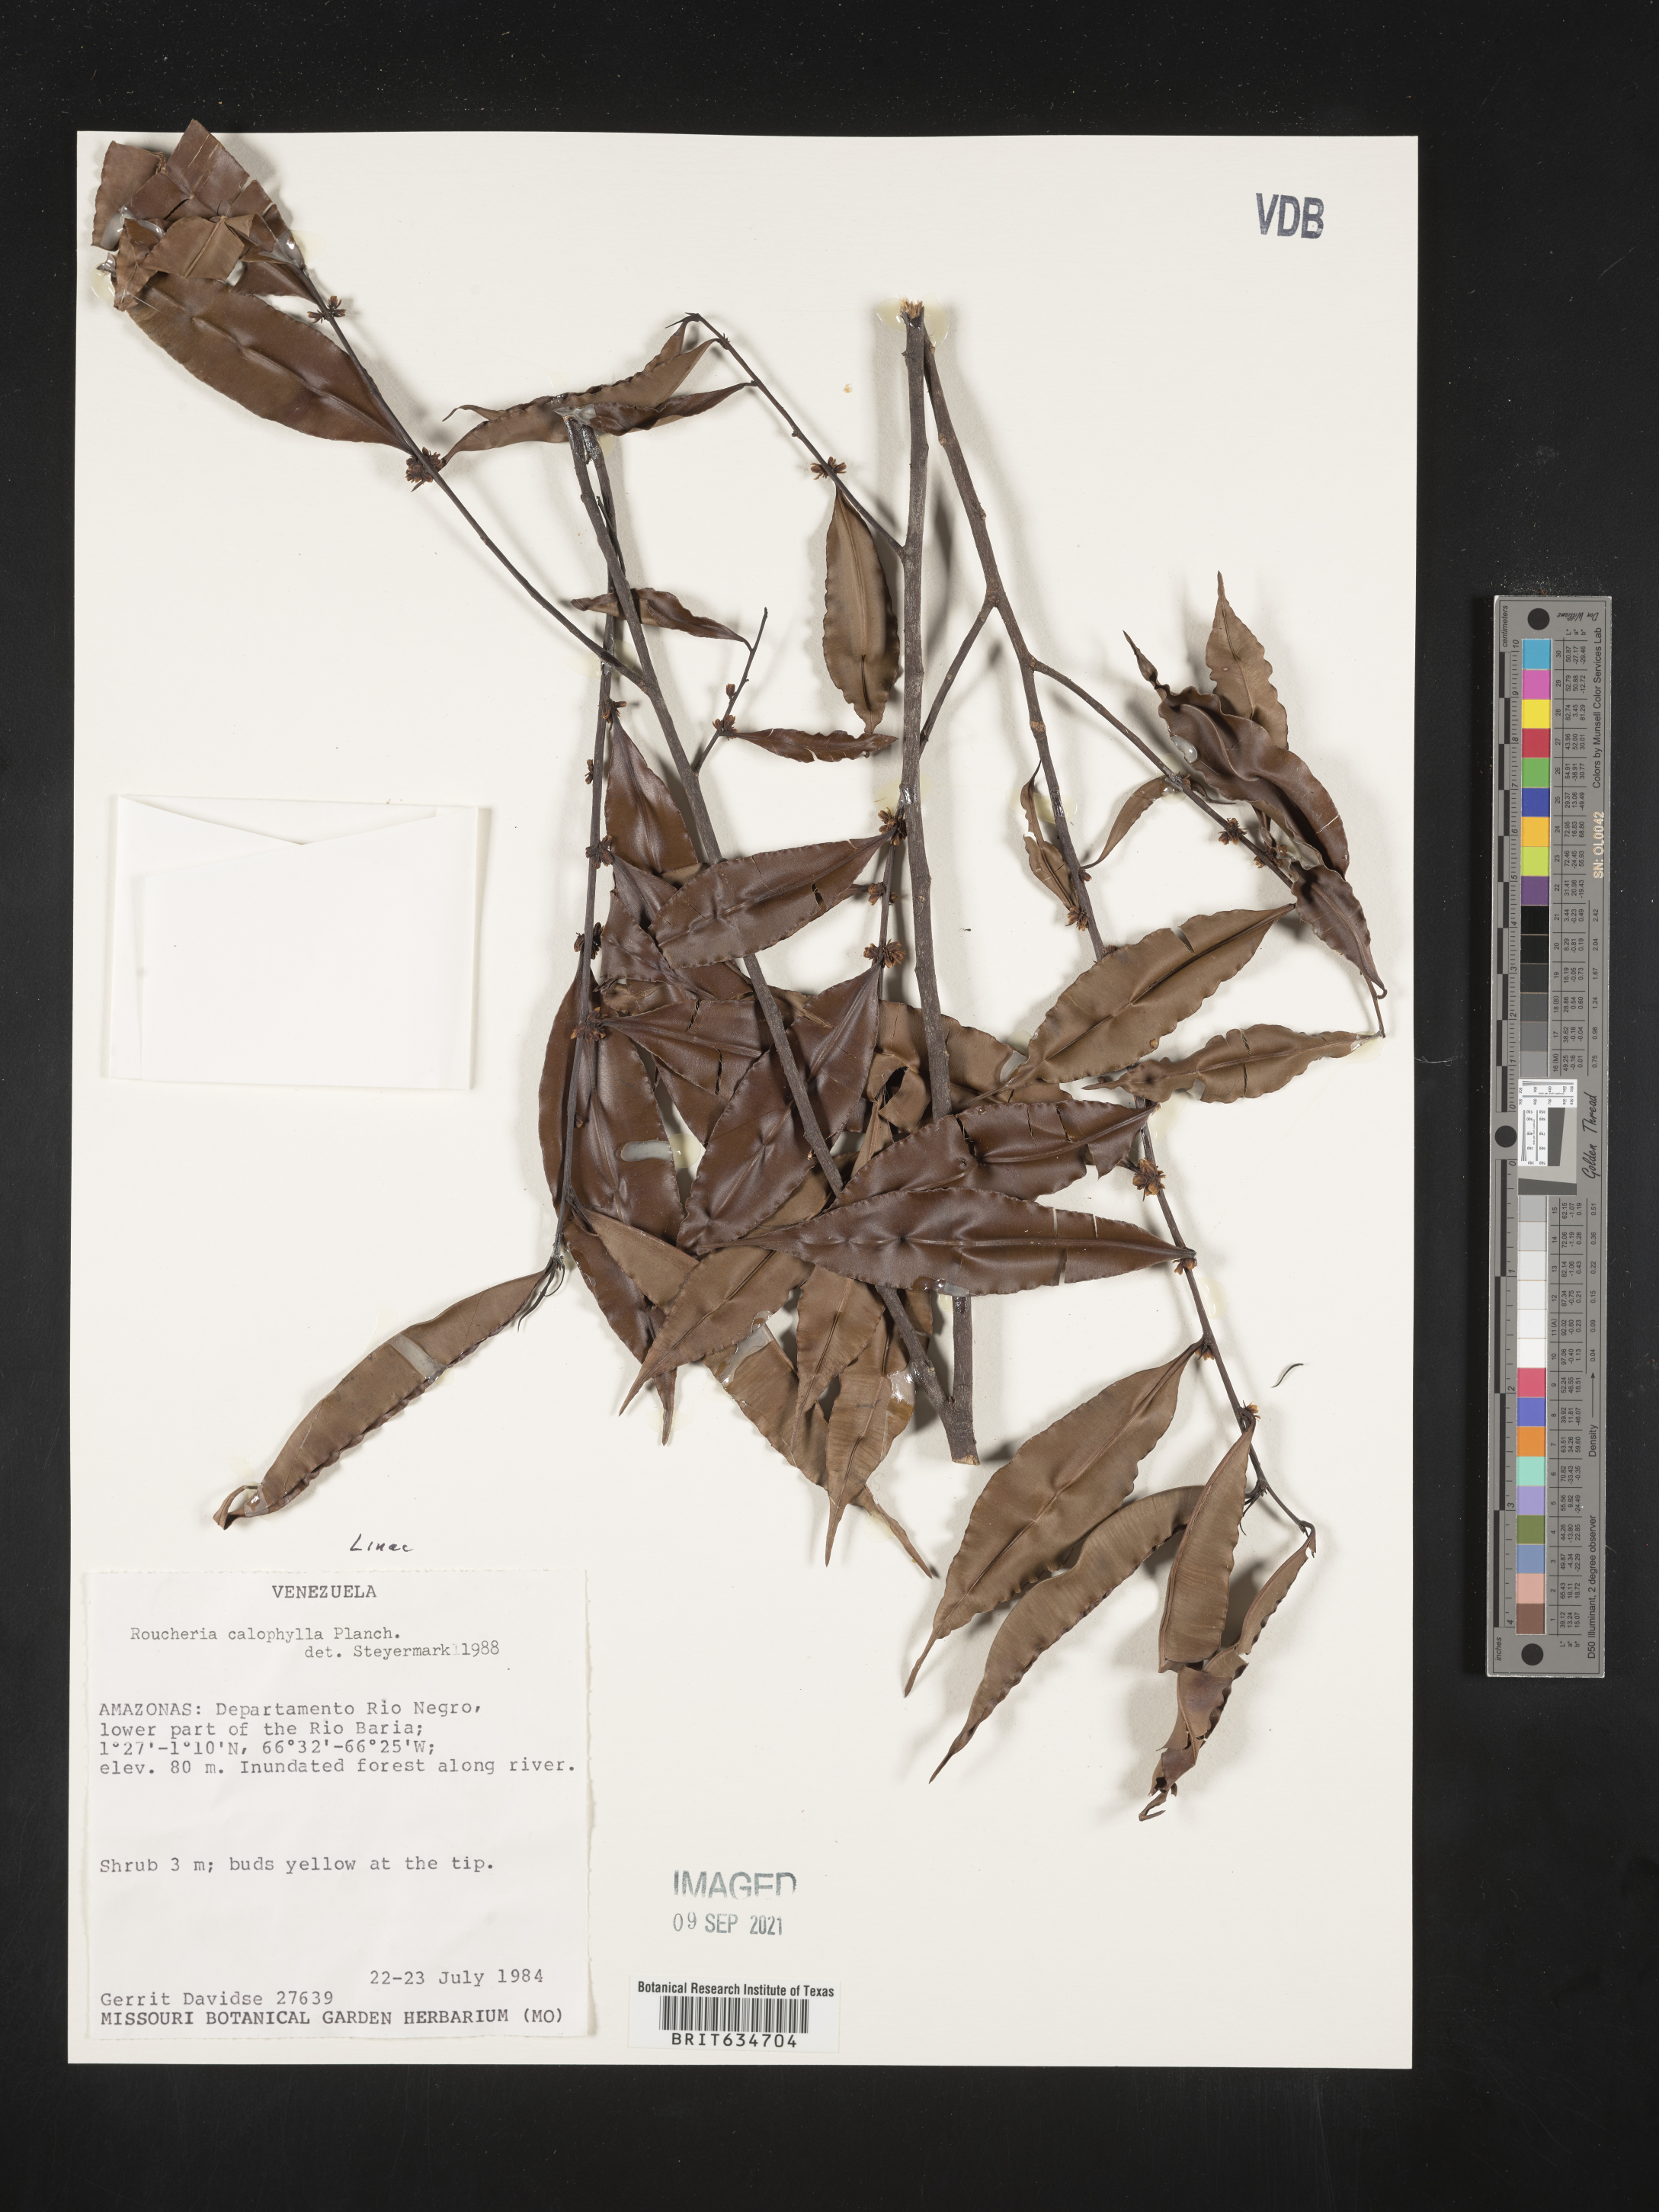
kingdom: Plantae
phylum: Tracheophyta
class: Magnoliopsida
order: Malpighiales
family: Linaceae
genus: Roucheria
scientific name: Roucheria
